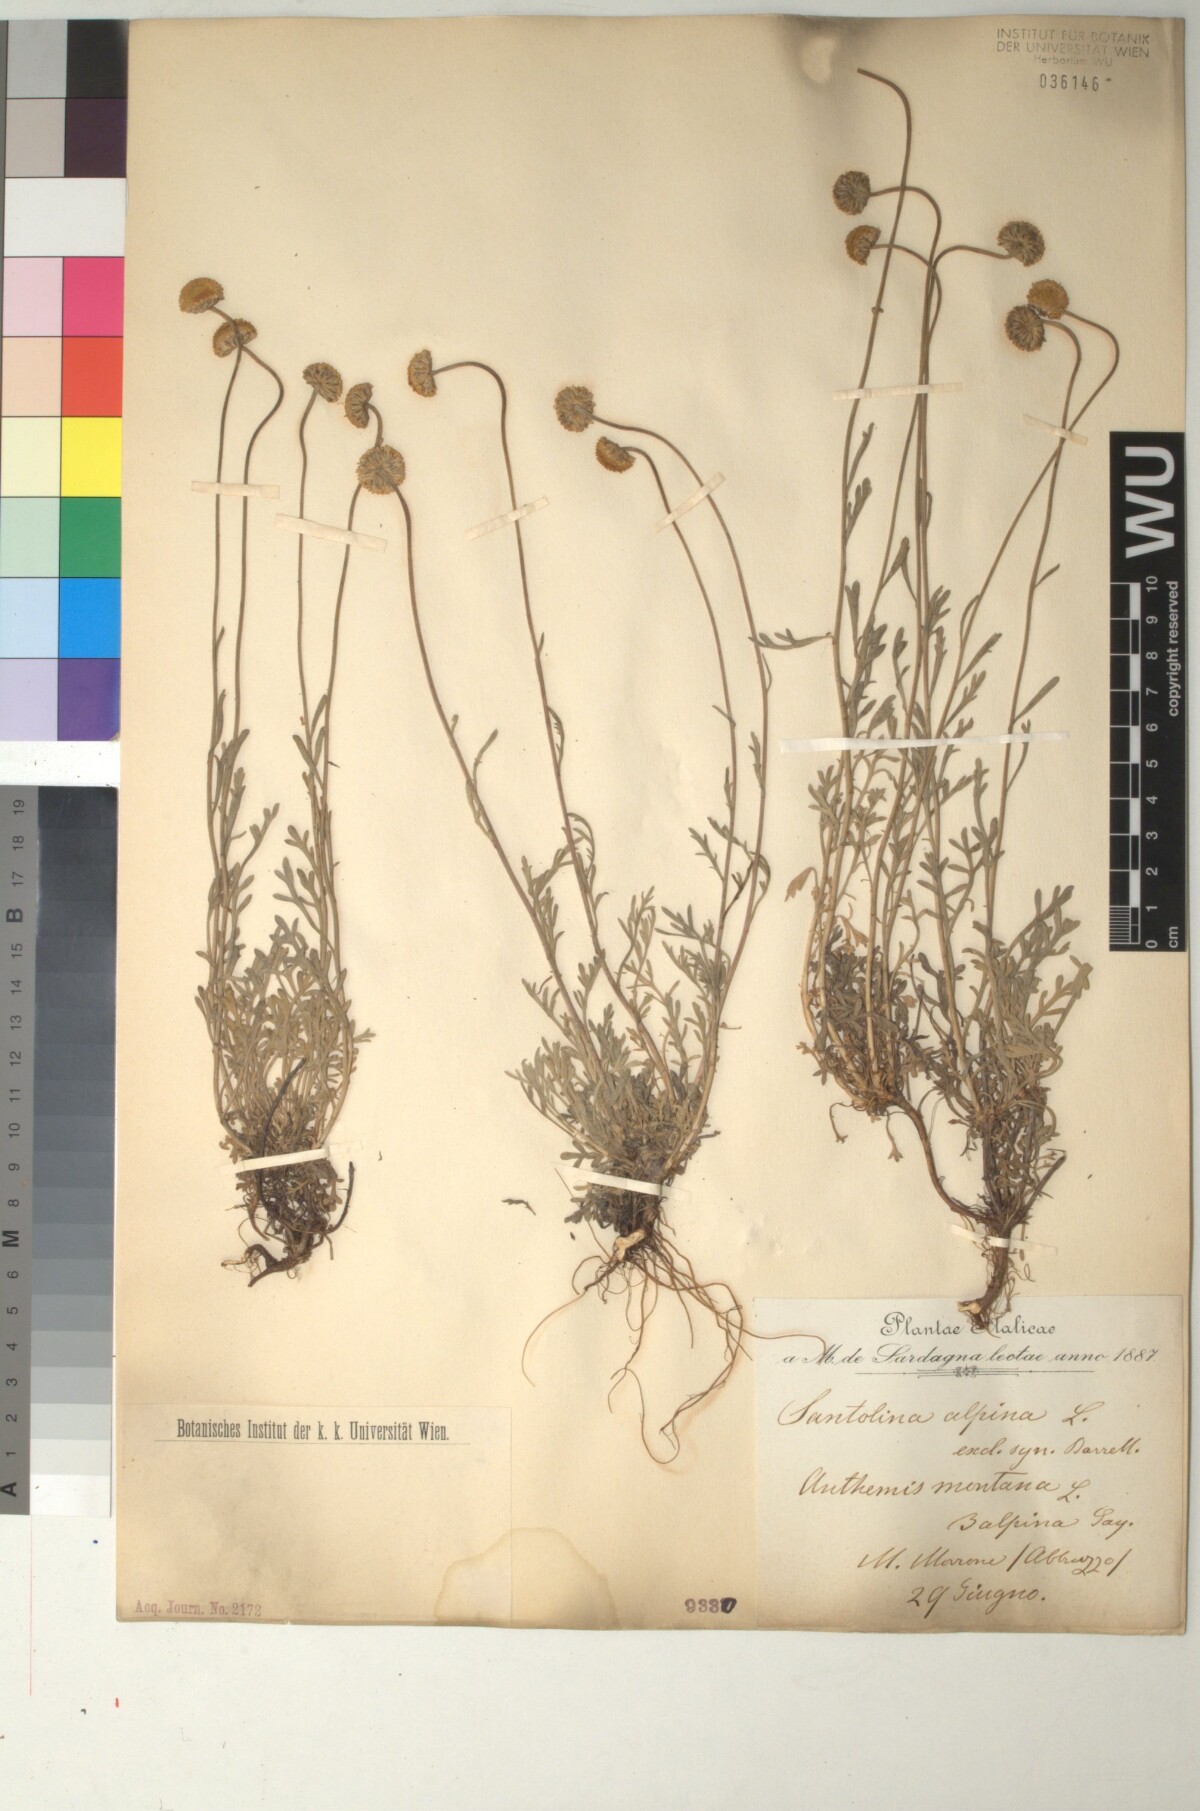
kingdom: Plantae
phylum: Tracheophyta
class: Magnoliopsida
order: Asterales
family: Asteraceae
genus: Anthemis
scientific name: Anthemis cretica
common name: Mountain dog-daisy
